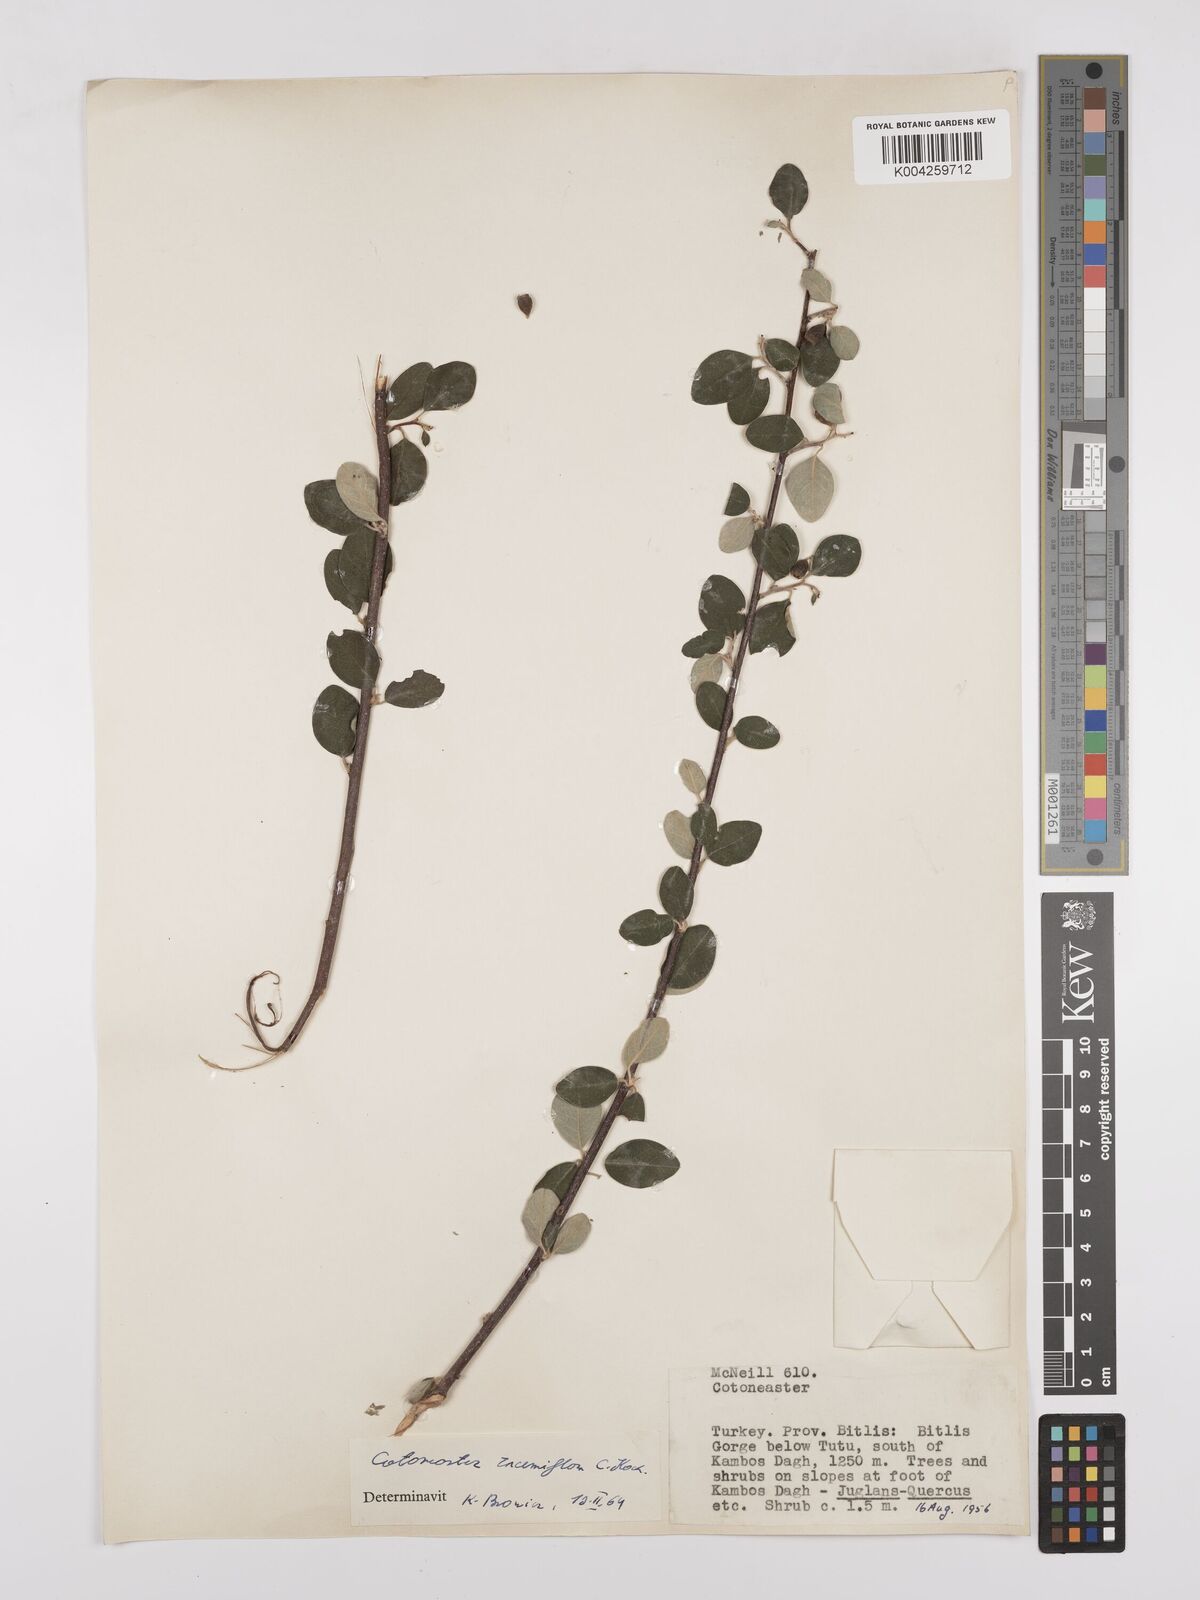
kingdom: Plantae
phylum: Tracheophyta
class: Magnoliopsida
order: Rosales
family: Rosaceae
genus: Cotoneaster
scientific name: Cotoneaster racemiflorus
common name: Cluster-flower cotoneaster
